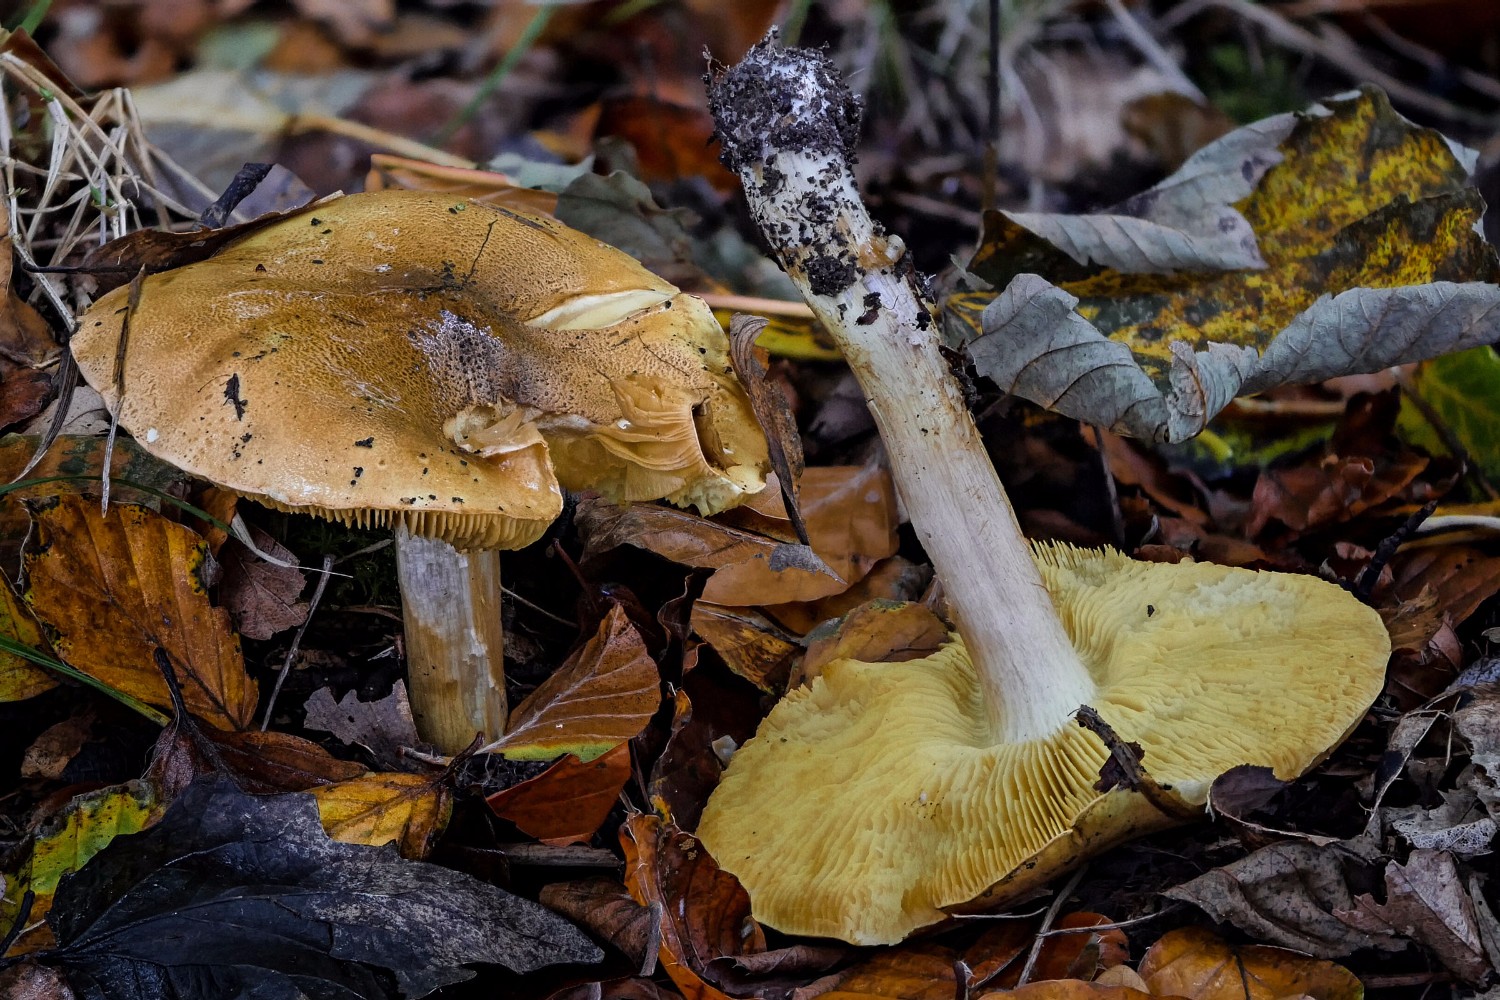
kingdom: Fungi
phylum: Basidiomycota
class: Agaricomycetes
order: Agaricales
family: Tricholomataceae
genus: Tricholoma
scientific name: Tricholoma frondosae
